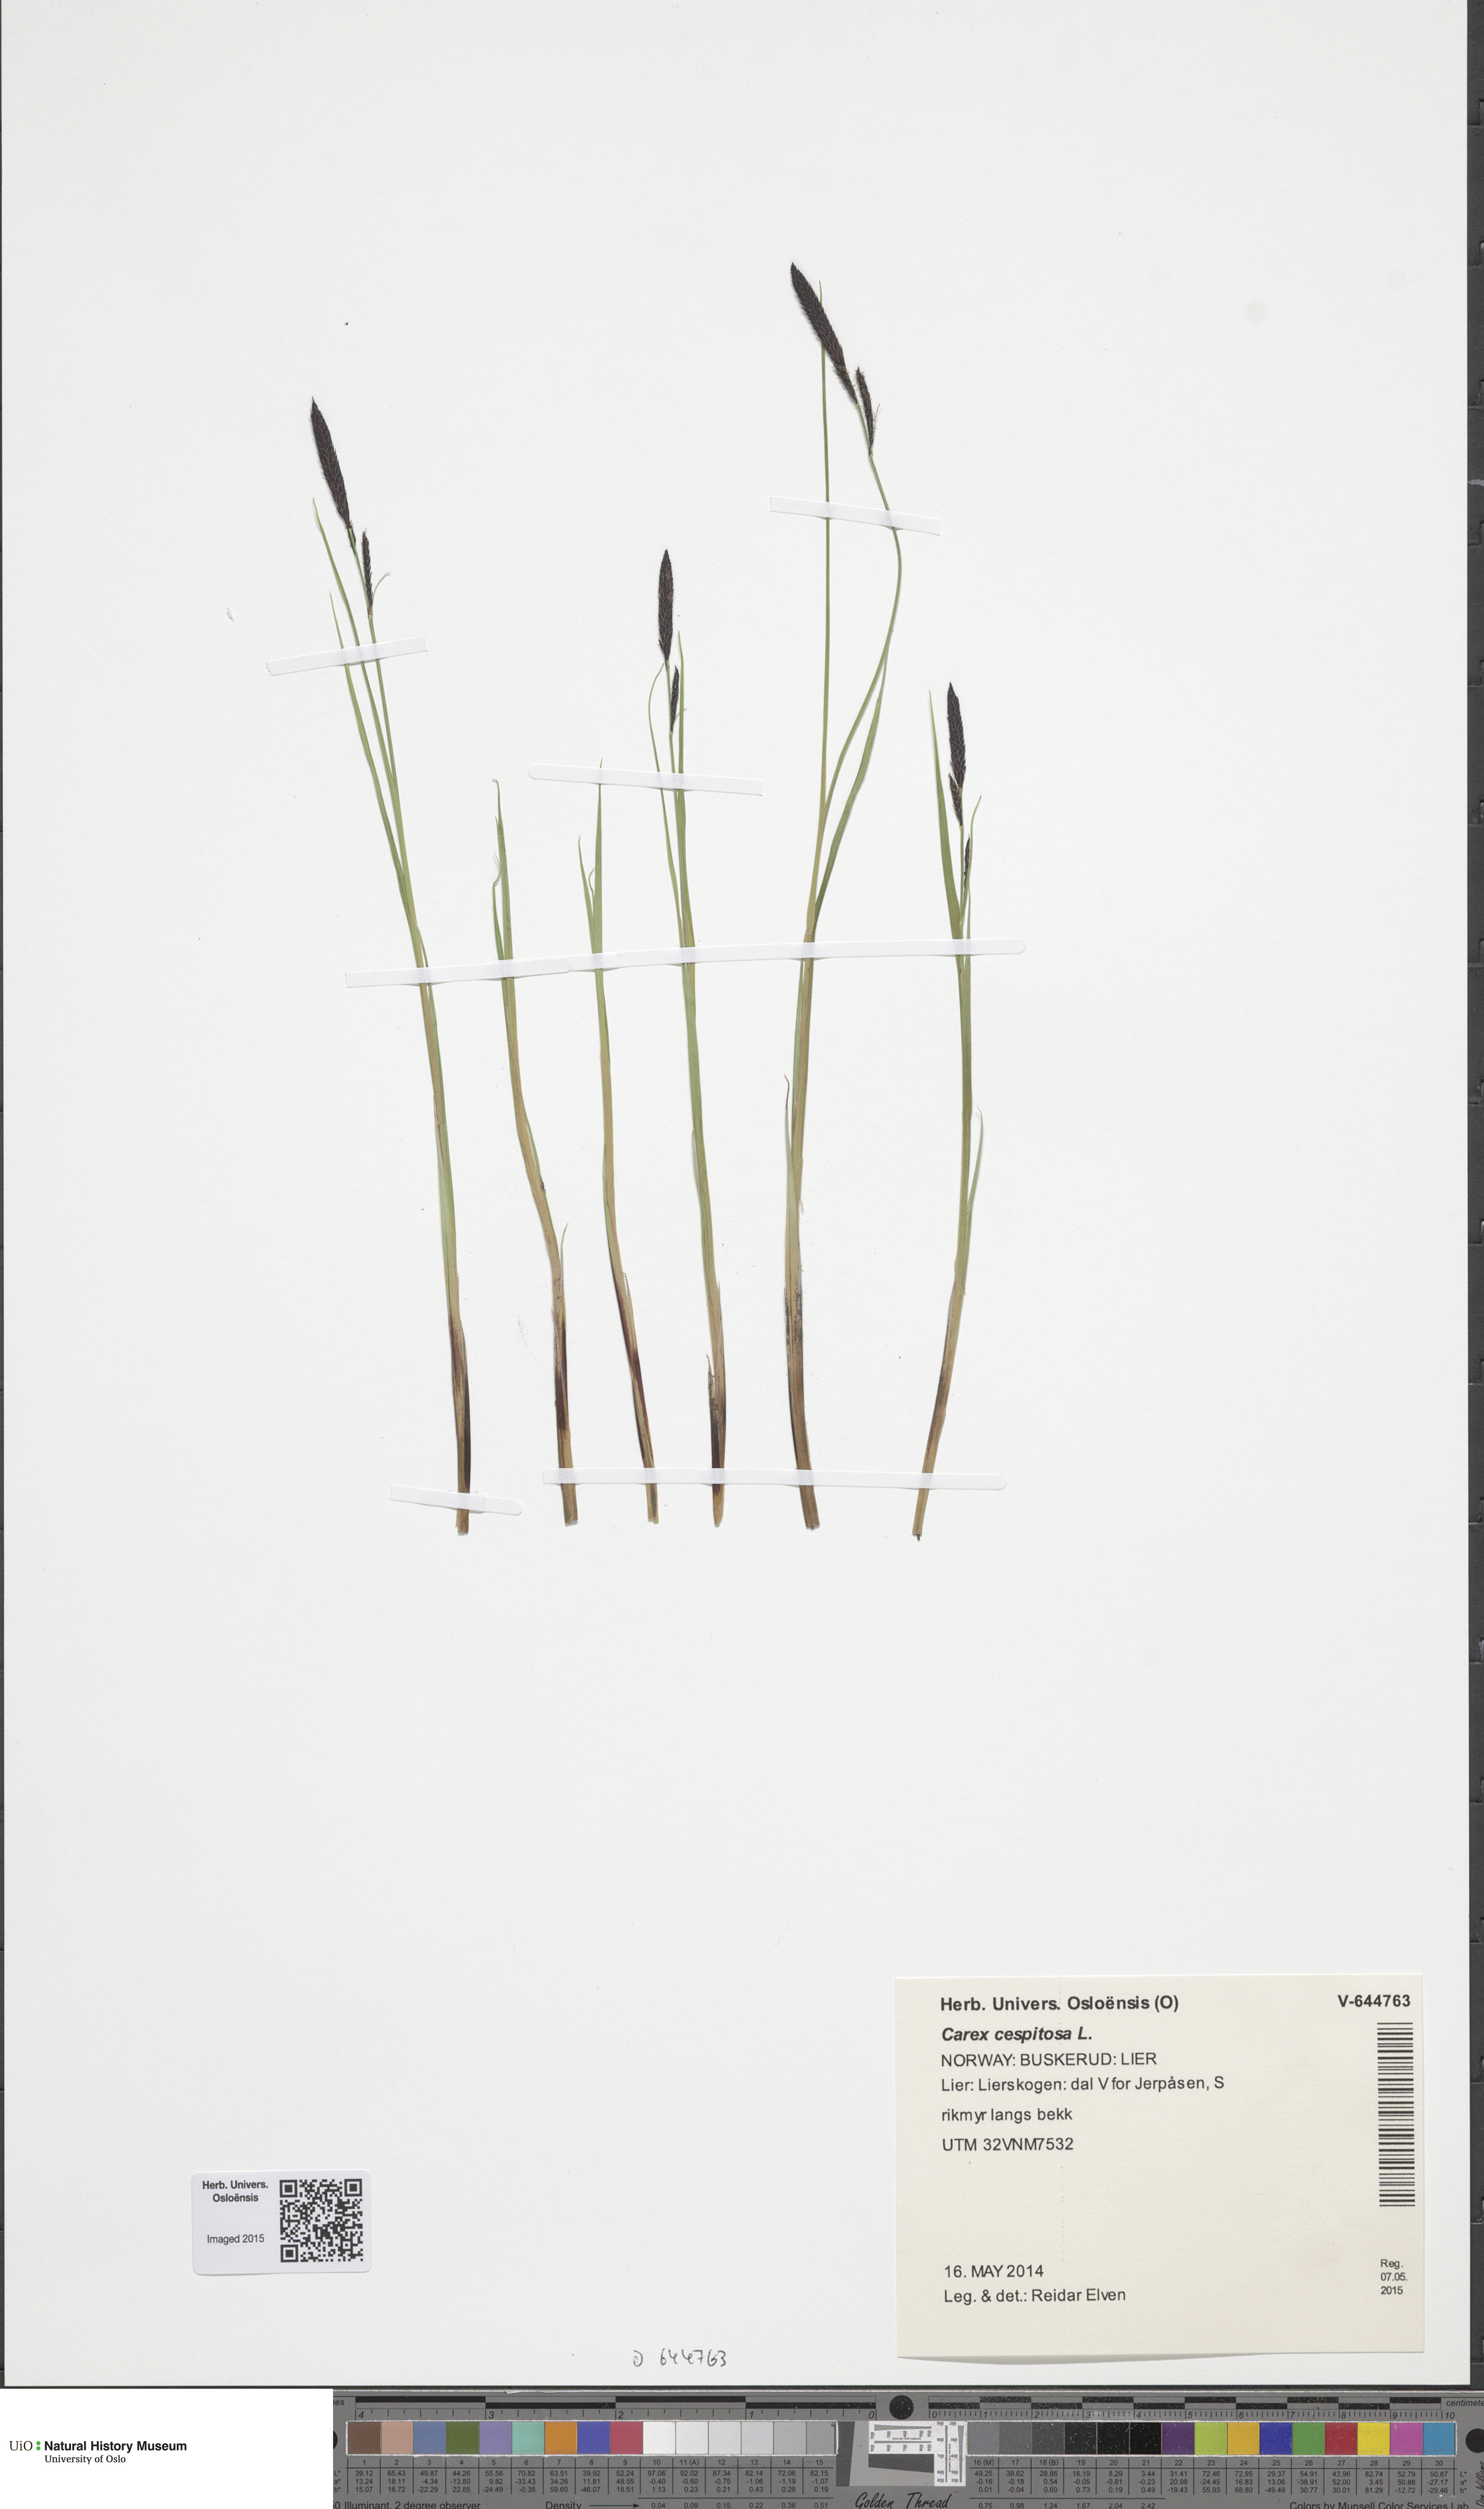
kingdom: Plantae
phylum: Tracheophyta
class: Liliopsida
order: Poales
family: Cyperaceae
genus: Carex
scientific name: Carex cespitosa
